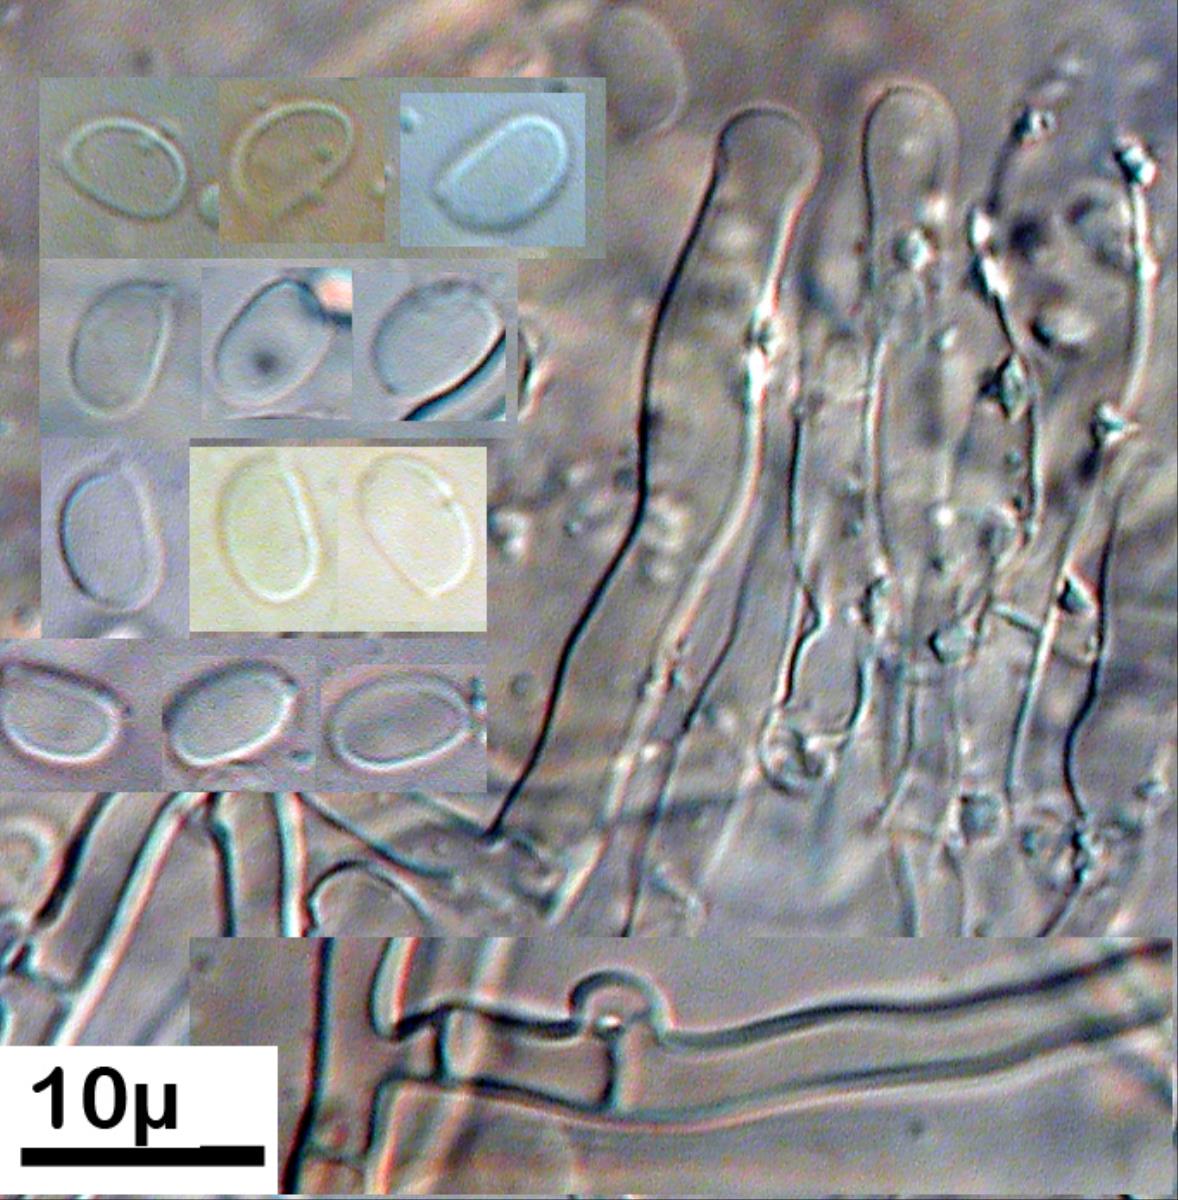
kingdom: Fungi
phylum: Basidiomycota
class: Agaricomycetes
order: Hymenochaetales
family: Schizoporaceae
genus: Lyomyces
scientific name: Lyomyces
